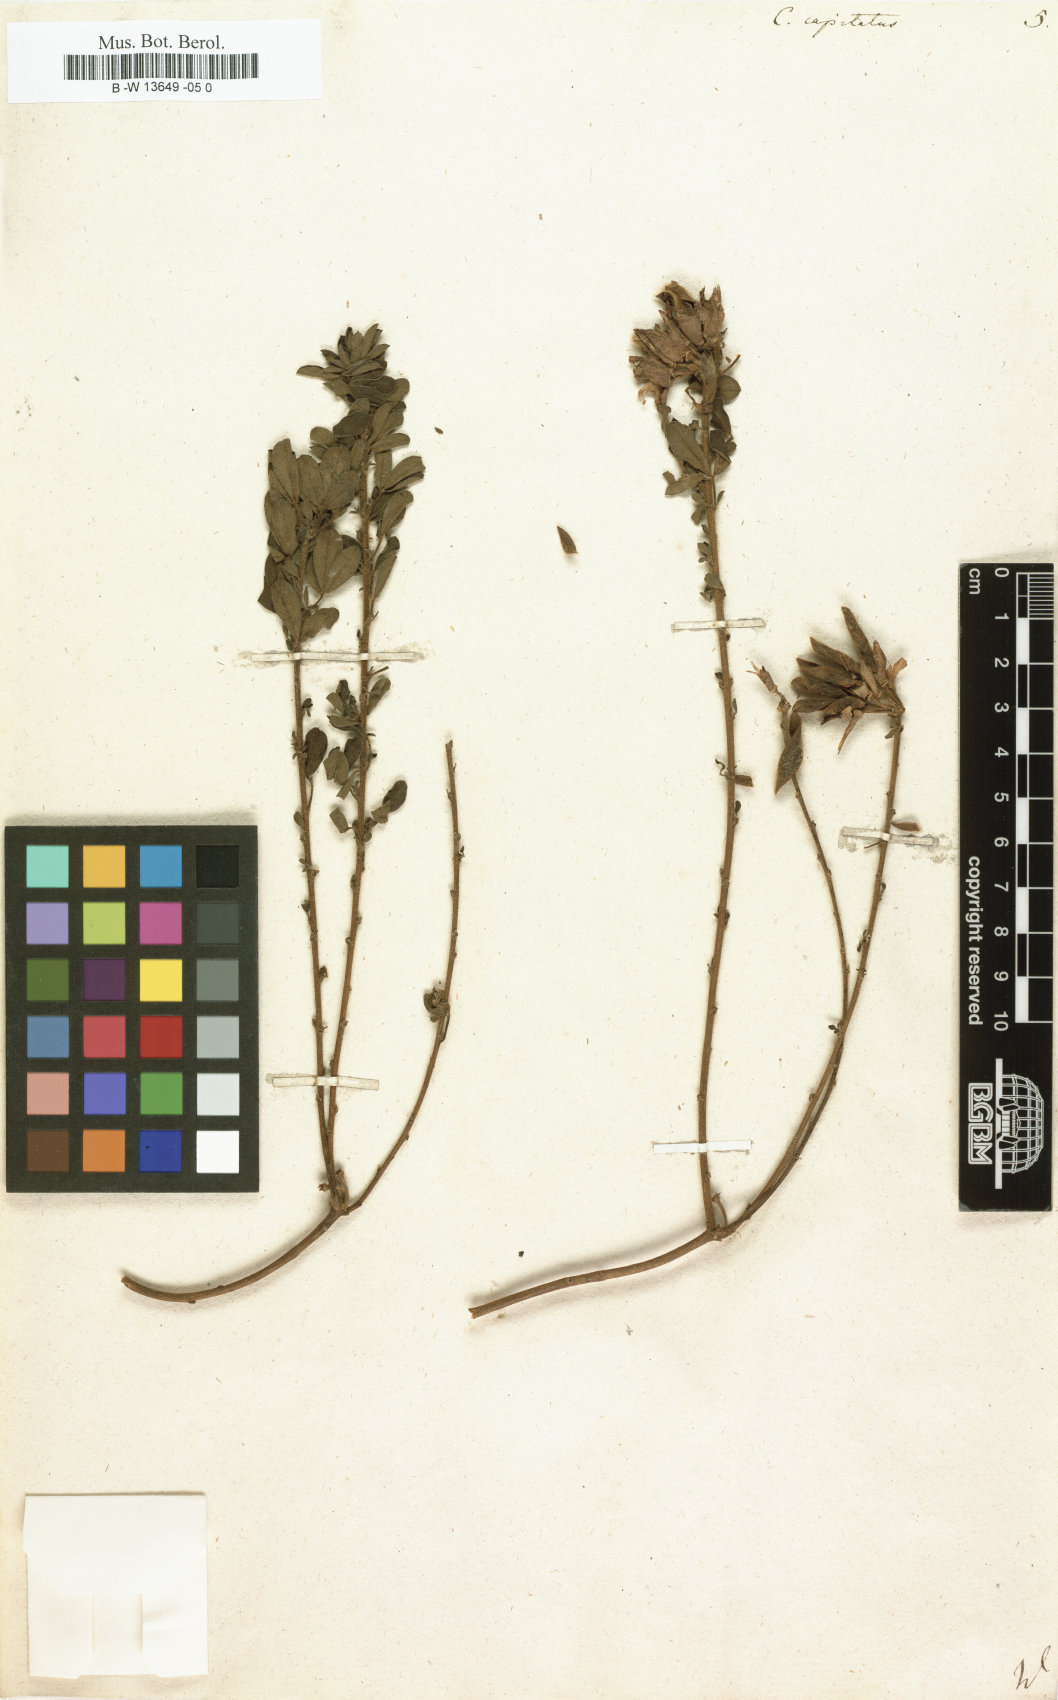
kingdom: Plantae
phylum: Tracheophyta
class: Magnoliopsida
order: Fabales
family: Fabaceae
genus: Chamaecytisus
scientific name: Chamaecytisus hirsutus
